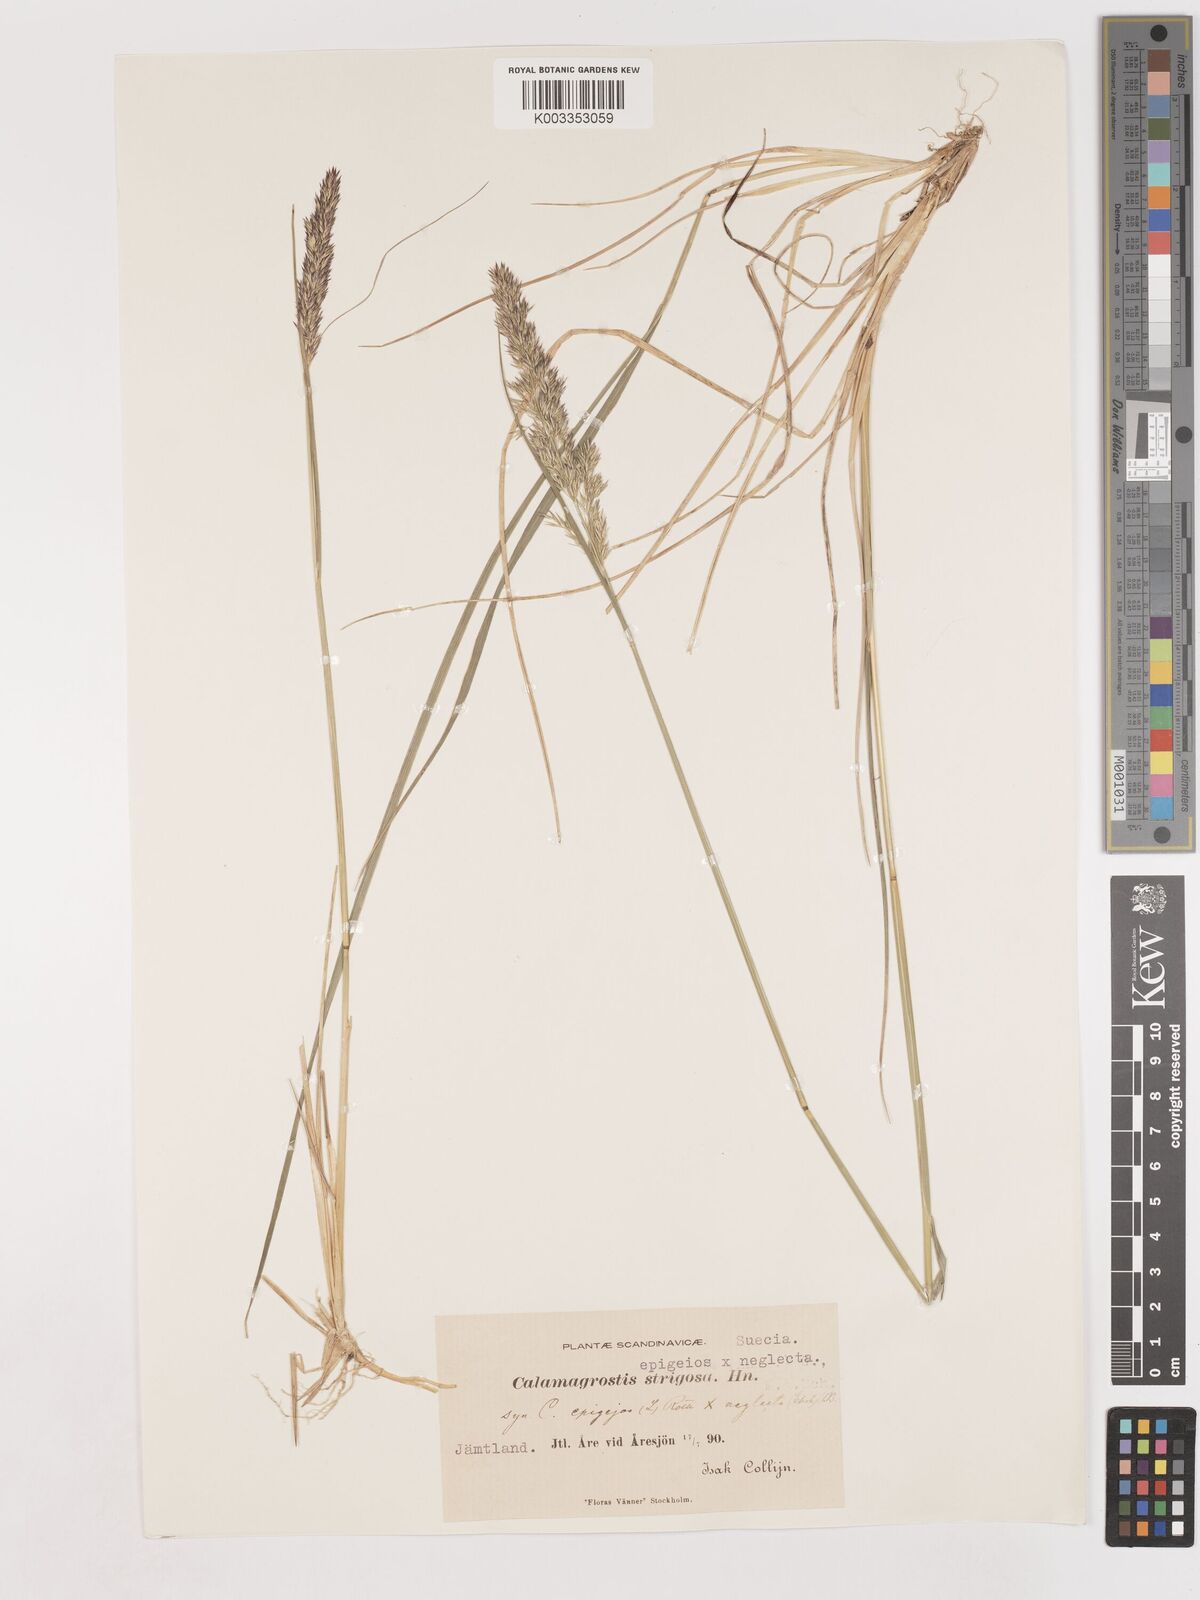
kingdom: Plantae
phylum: Tracheophyta
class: Liliopsida
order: Poales
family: Poaceae
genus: Calamagrostis
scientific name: Calamagrostis epigejos
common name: Wood small-reed
